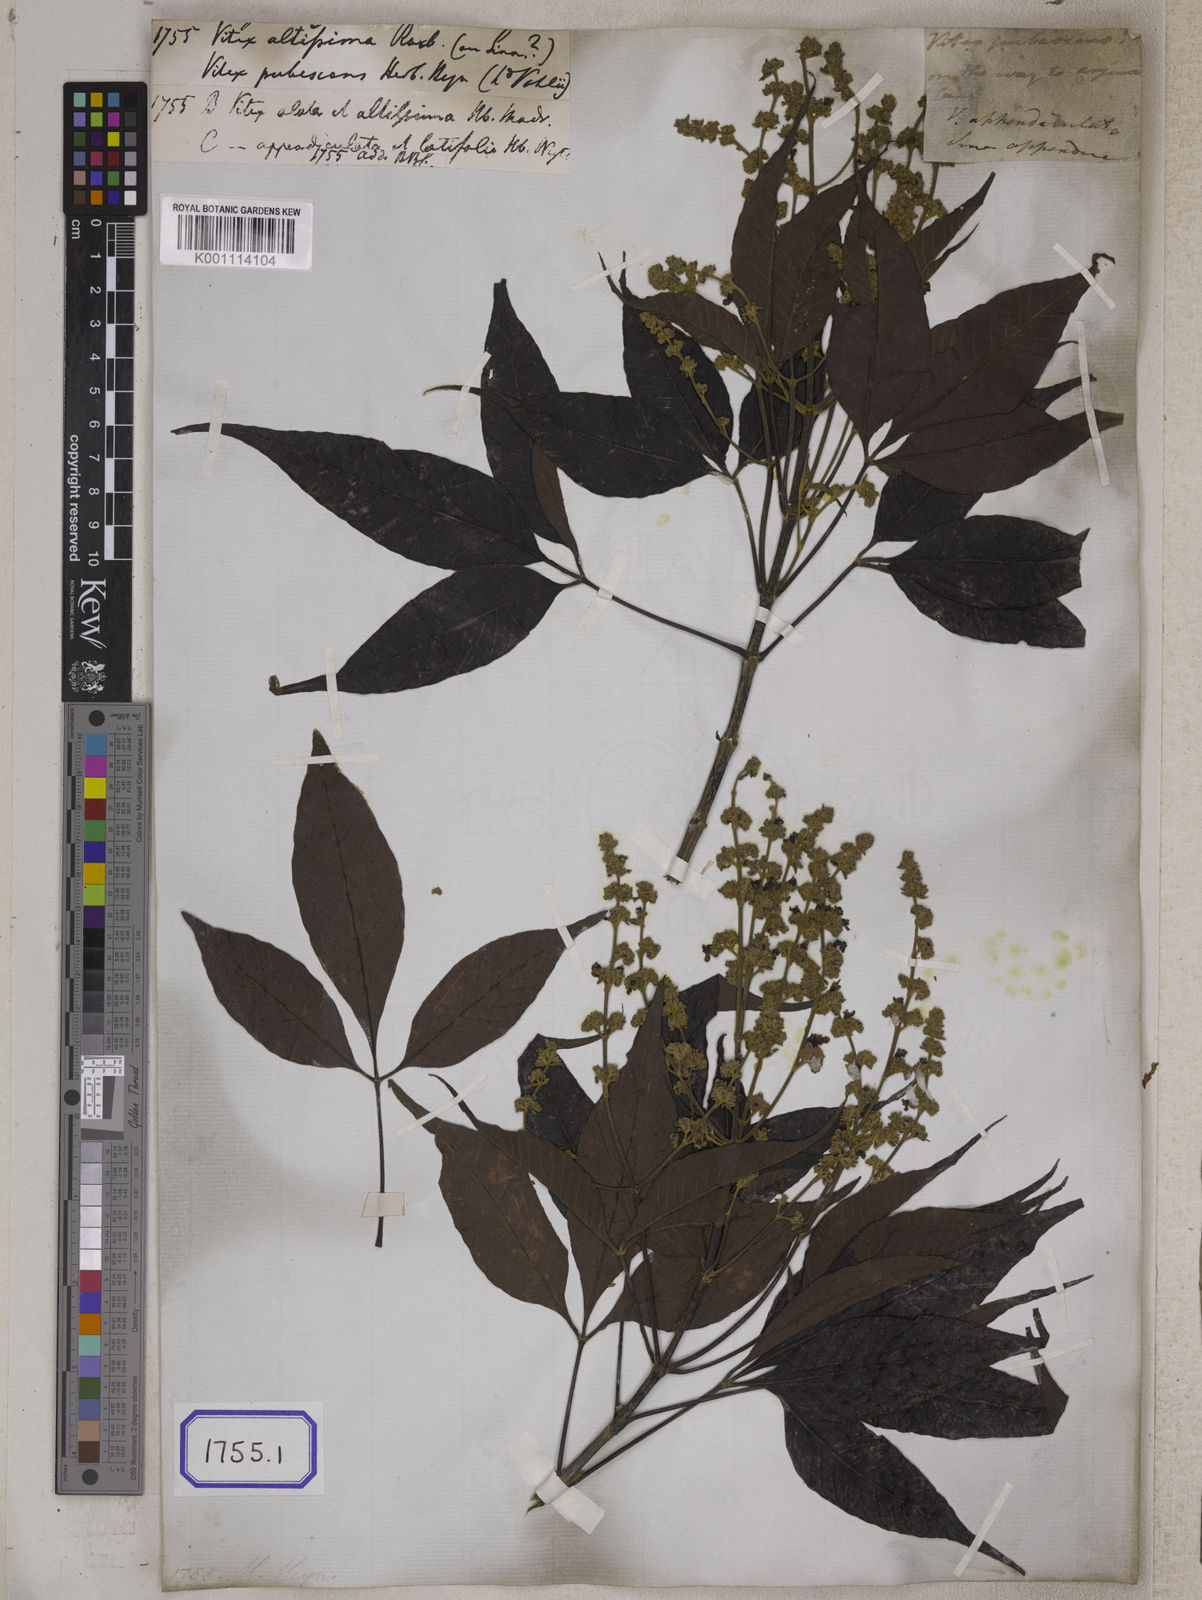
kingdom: Plantae
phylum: Tracheophyta
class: Magnoliopsida
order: Lamiales
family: Lamiaceae
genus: Vitex
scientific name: Vitex altissima
